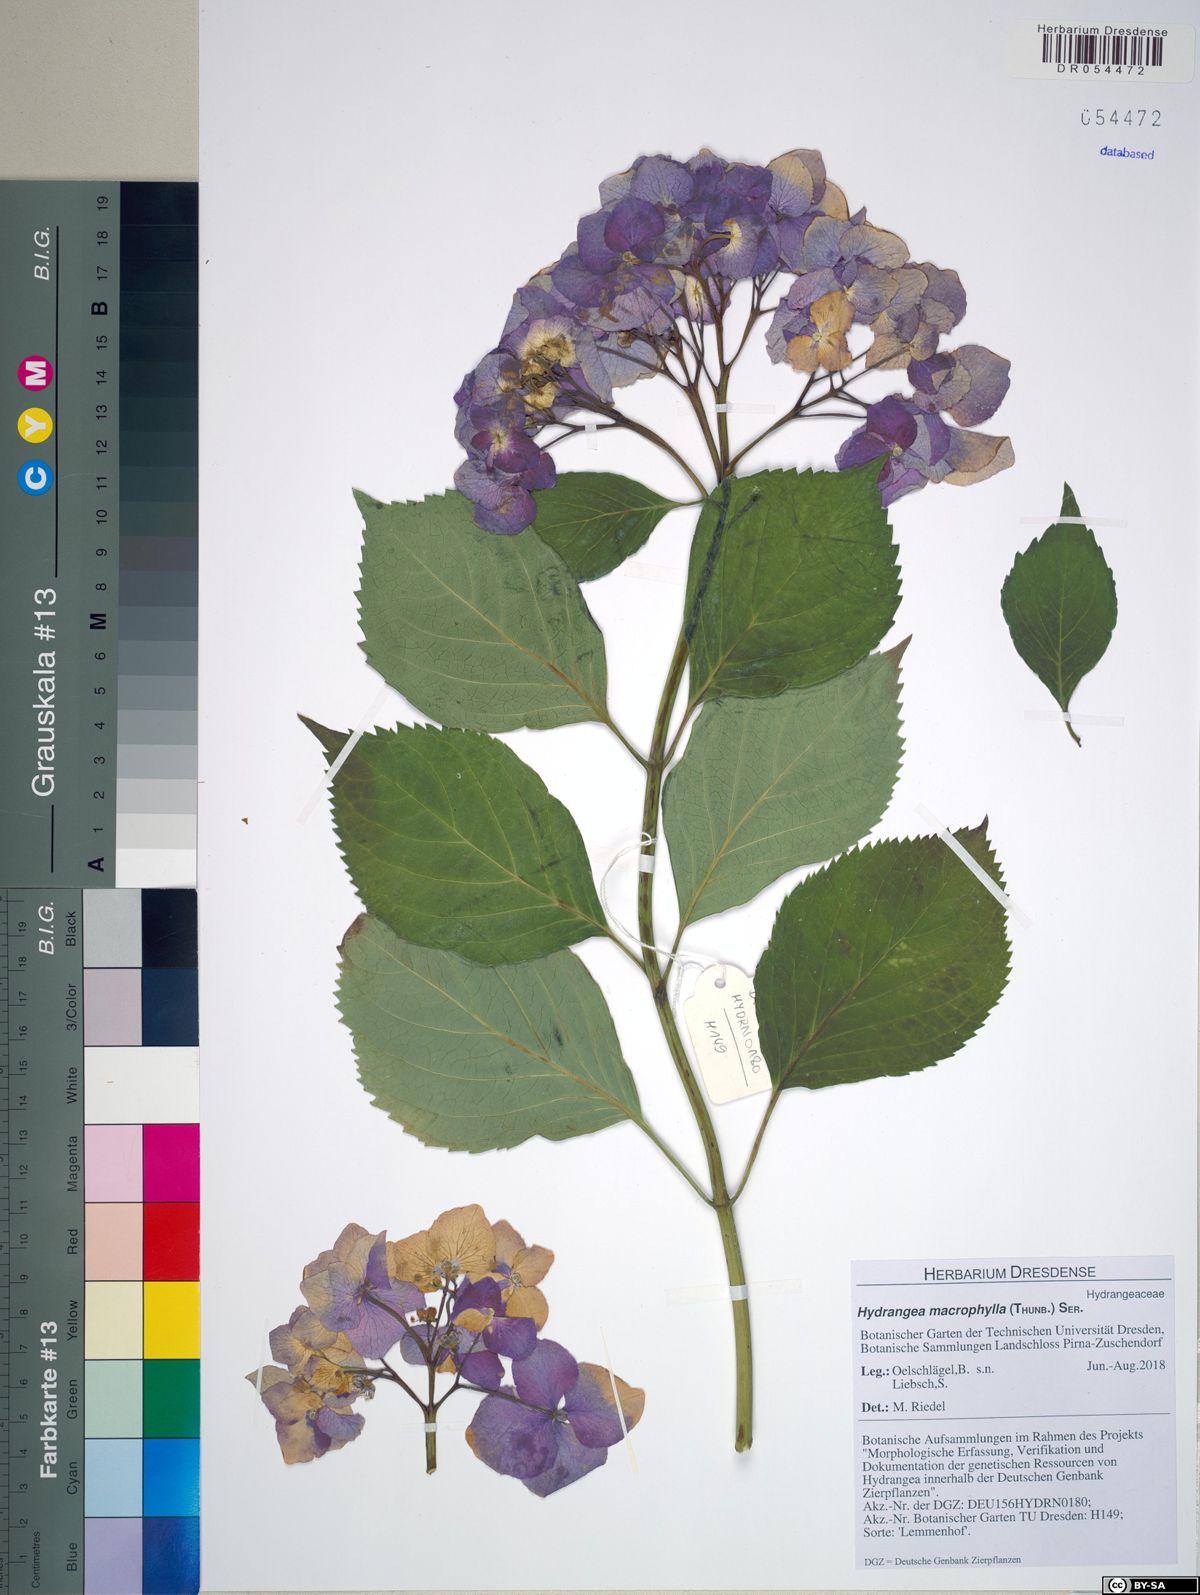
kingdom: Plantae
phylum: Tracheophyta
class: Magnoliopsida
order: Cornales
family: Hydrangeaceae
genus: Hydrangea
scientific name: Hydrangea macrophylla
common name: Hydrangea
